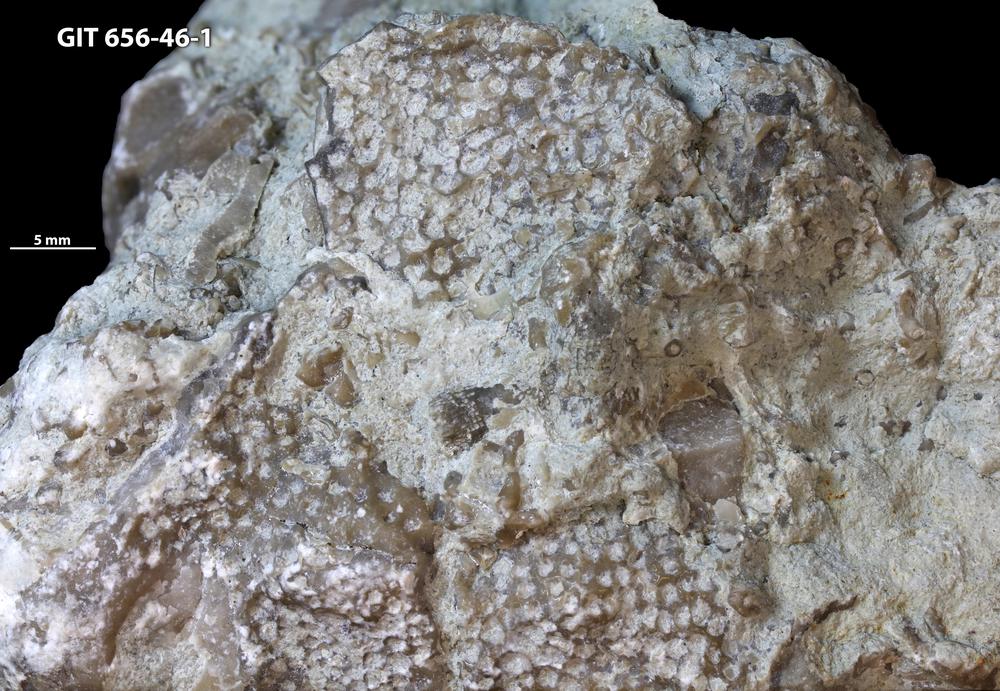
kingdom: Animalia
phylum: Cnidaria
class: Anthozoa
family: Theciidae
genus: Laceripora
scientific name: Laceripora
